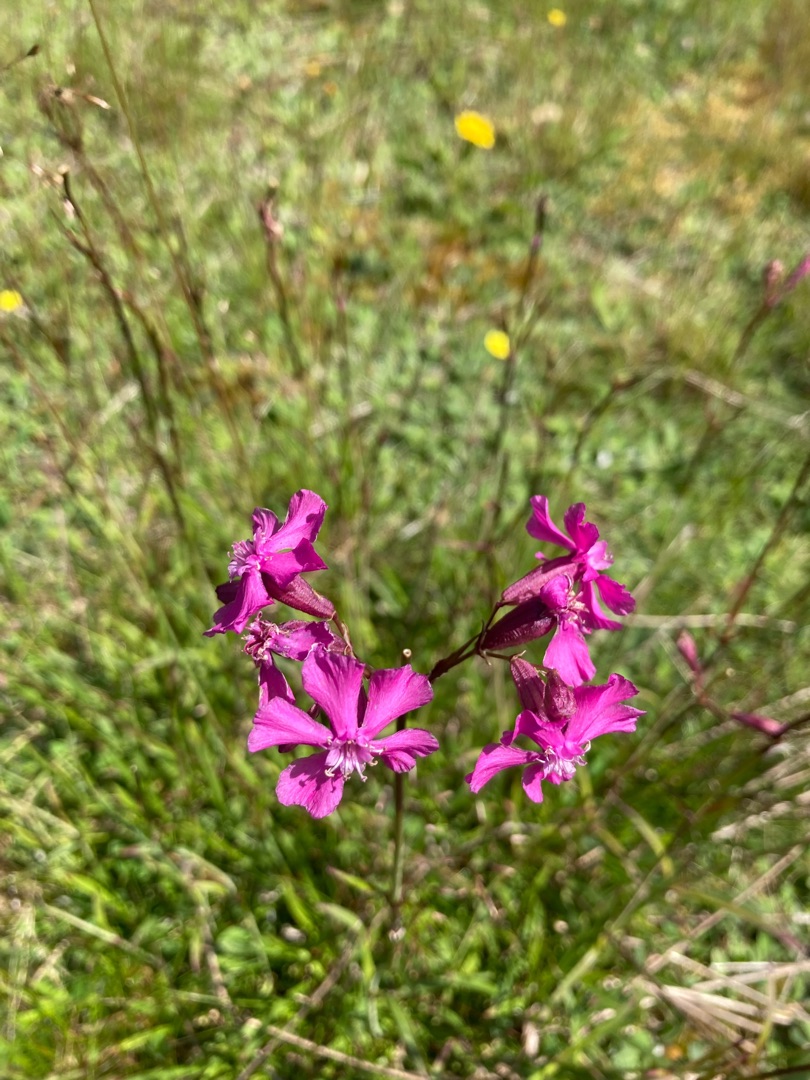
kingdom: Plantae
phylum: Tracheophyta
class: Magnoliopsida
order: Caryophyllales
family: Caryophyllaceae
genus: Viscaria
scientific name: Viscaria vulgaris
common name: Tjærenellike
